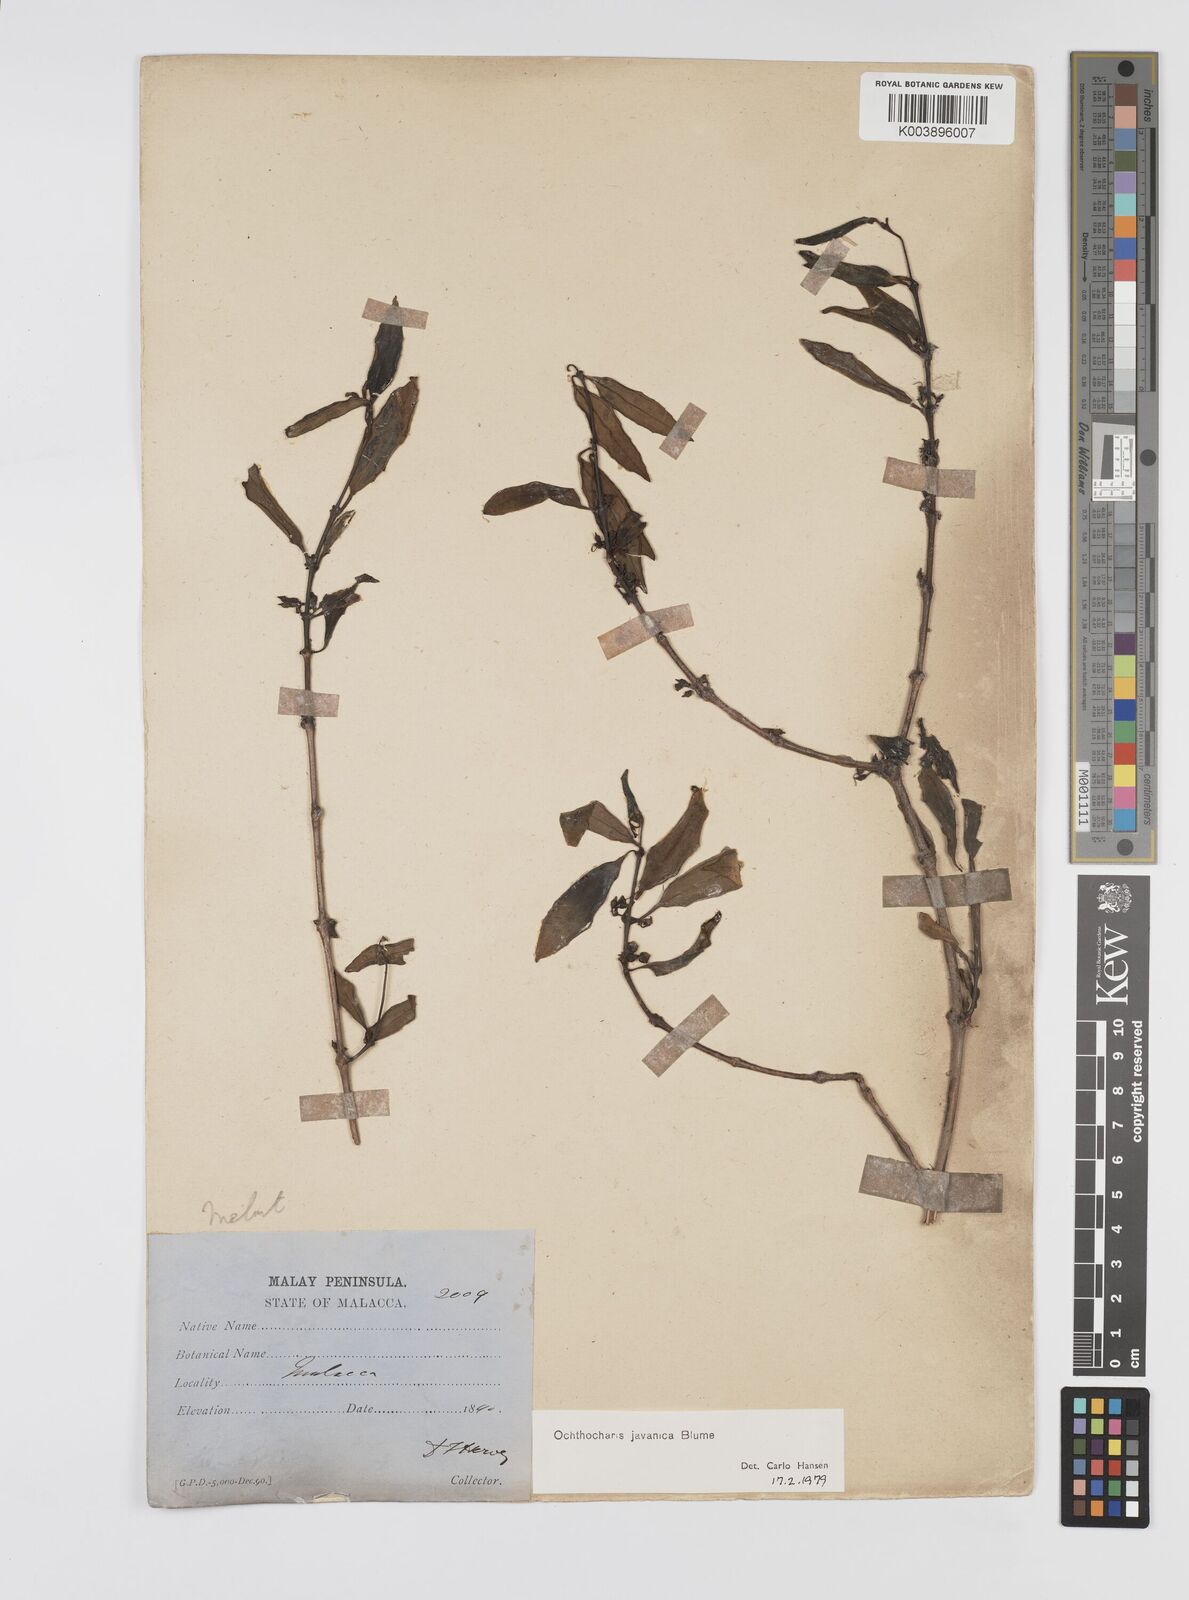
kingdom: Plantae
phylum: Tracheophyta
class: Magnoliopsida
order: Myrtales
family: Melastomataceae
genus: Ochthocharis
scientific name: Ochthocharis javanica
